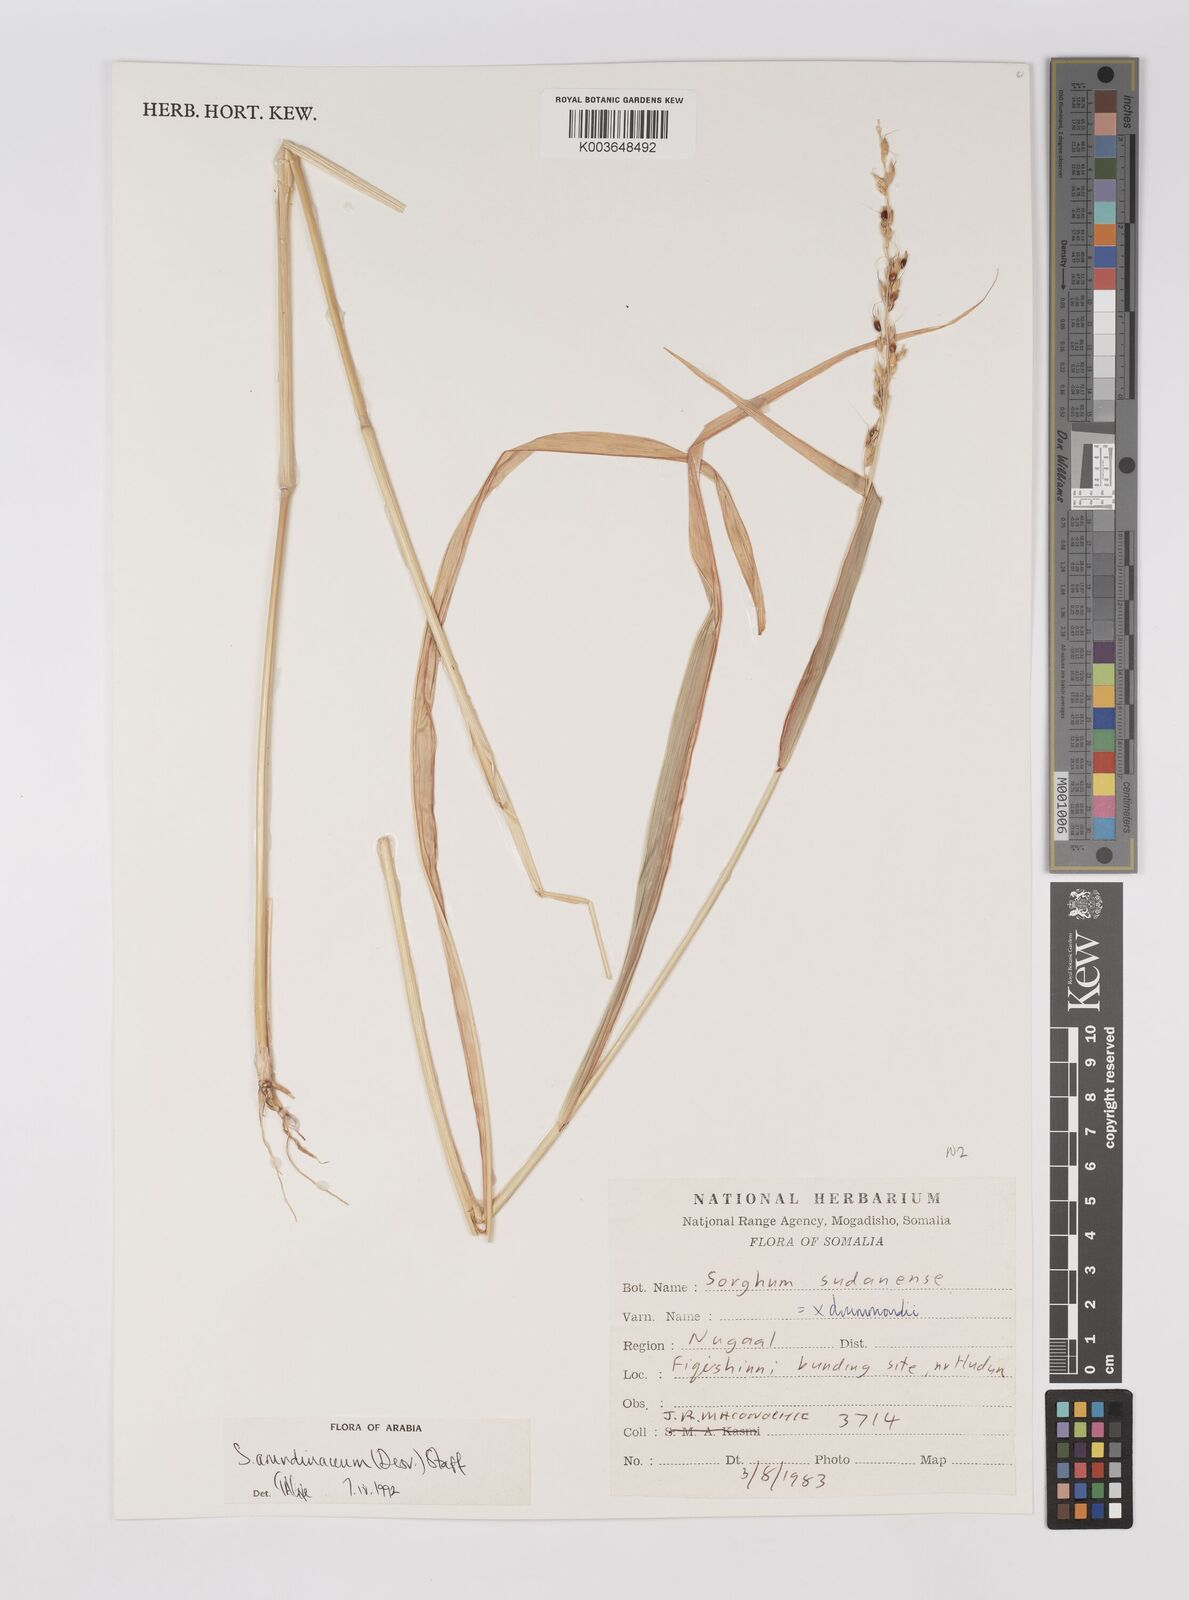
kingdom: Plantae
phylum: Tracheophyta
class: Liliopsida
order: Poales
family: Poaceae
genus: Sorghum
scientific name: Sorghum arundinaceum
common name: Sorghum
